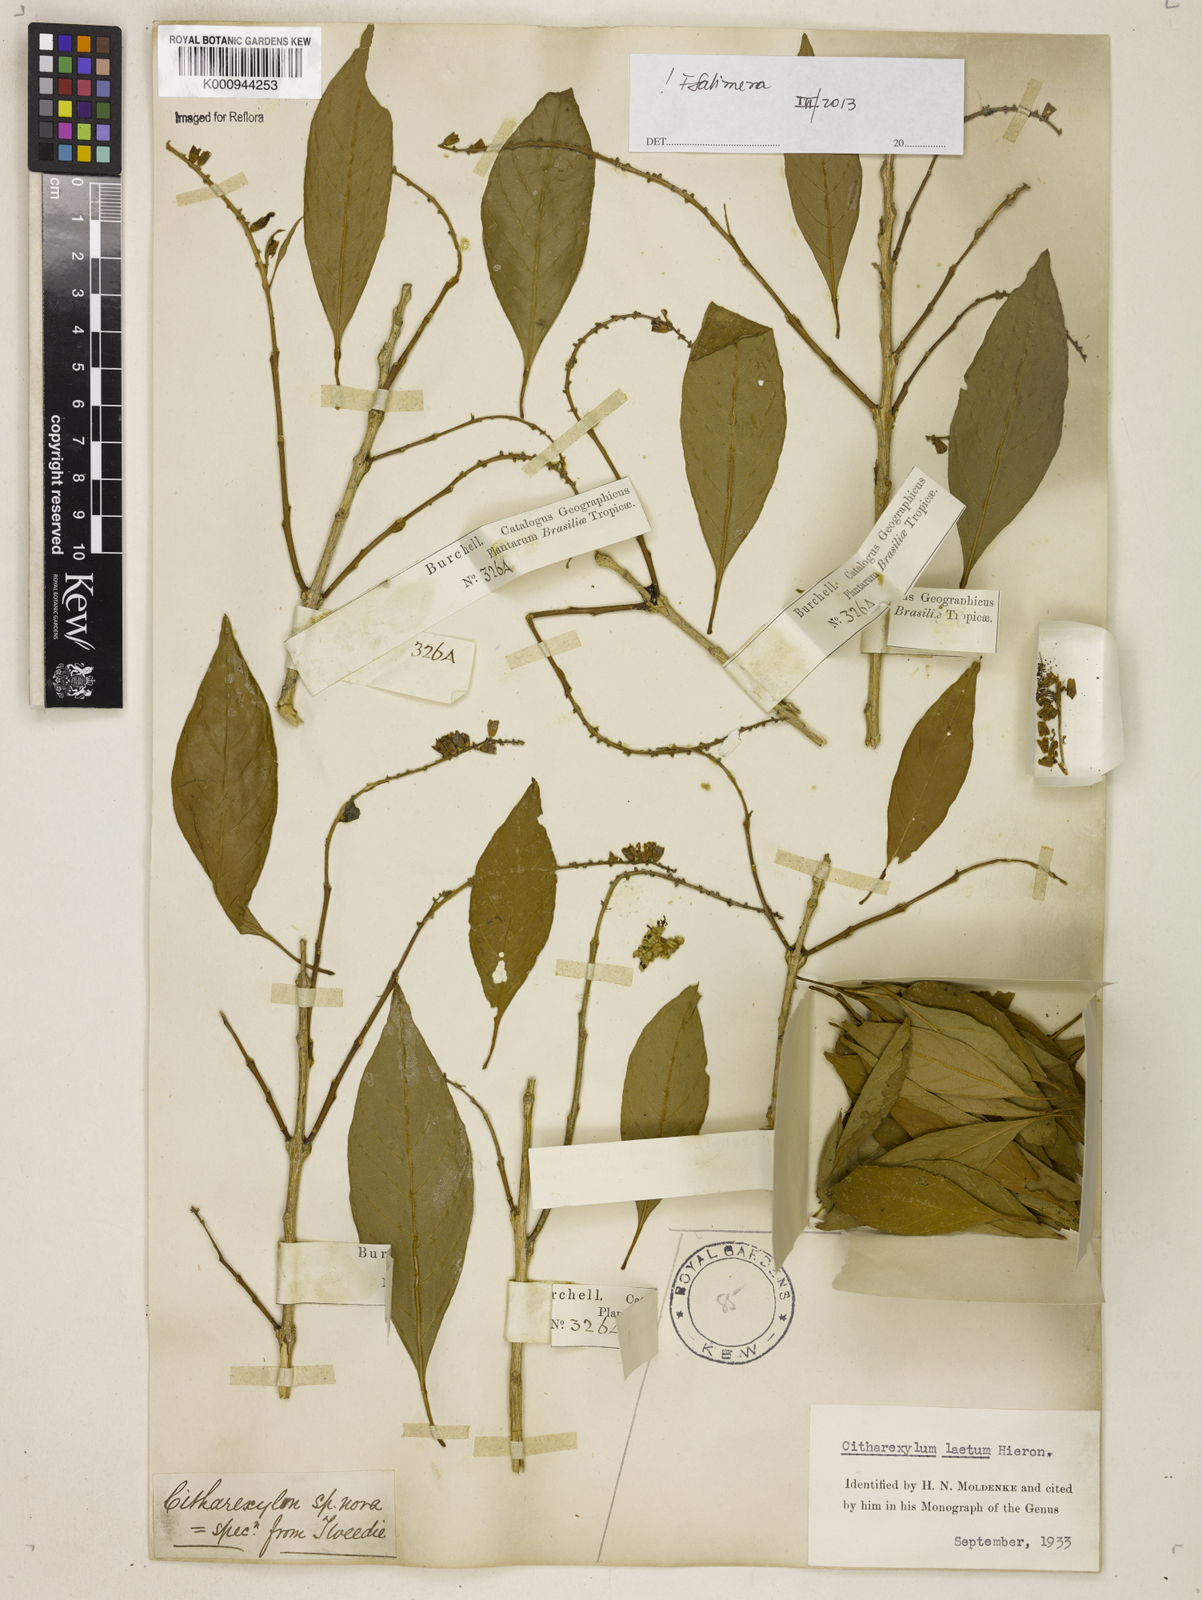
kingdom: Plantae
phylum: Tracheophyta
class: Magnoliopsida
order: Lamiales
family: Verbenaceae
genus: Citharexylum
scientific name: Citharexylum myrianthum
